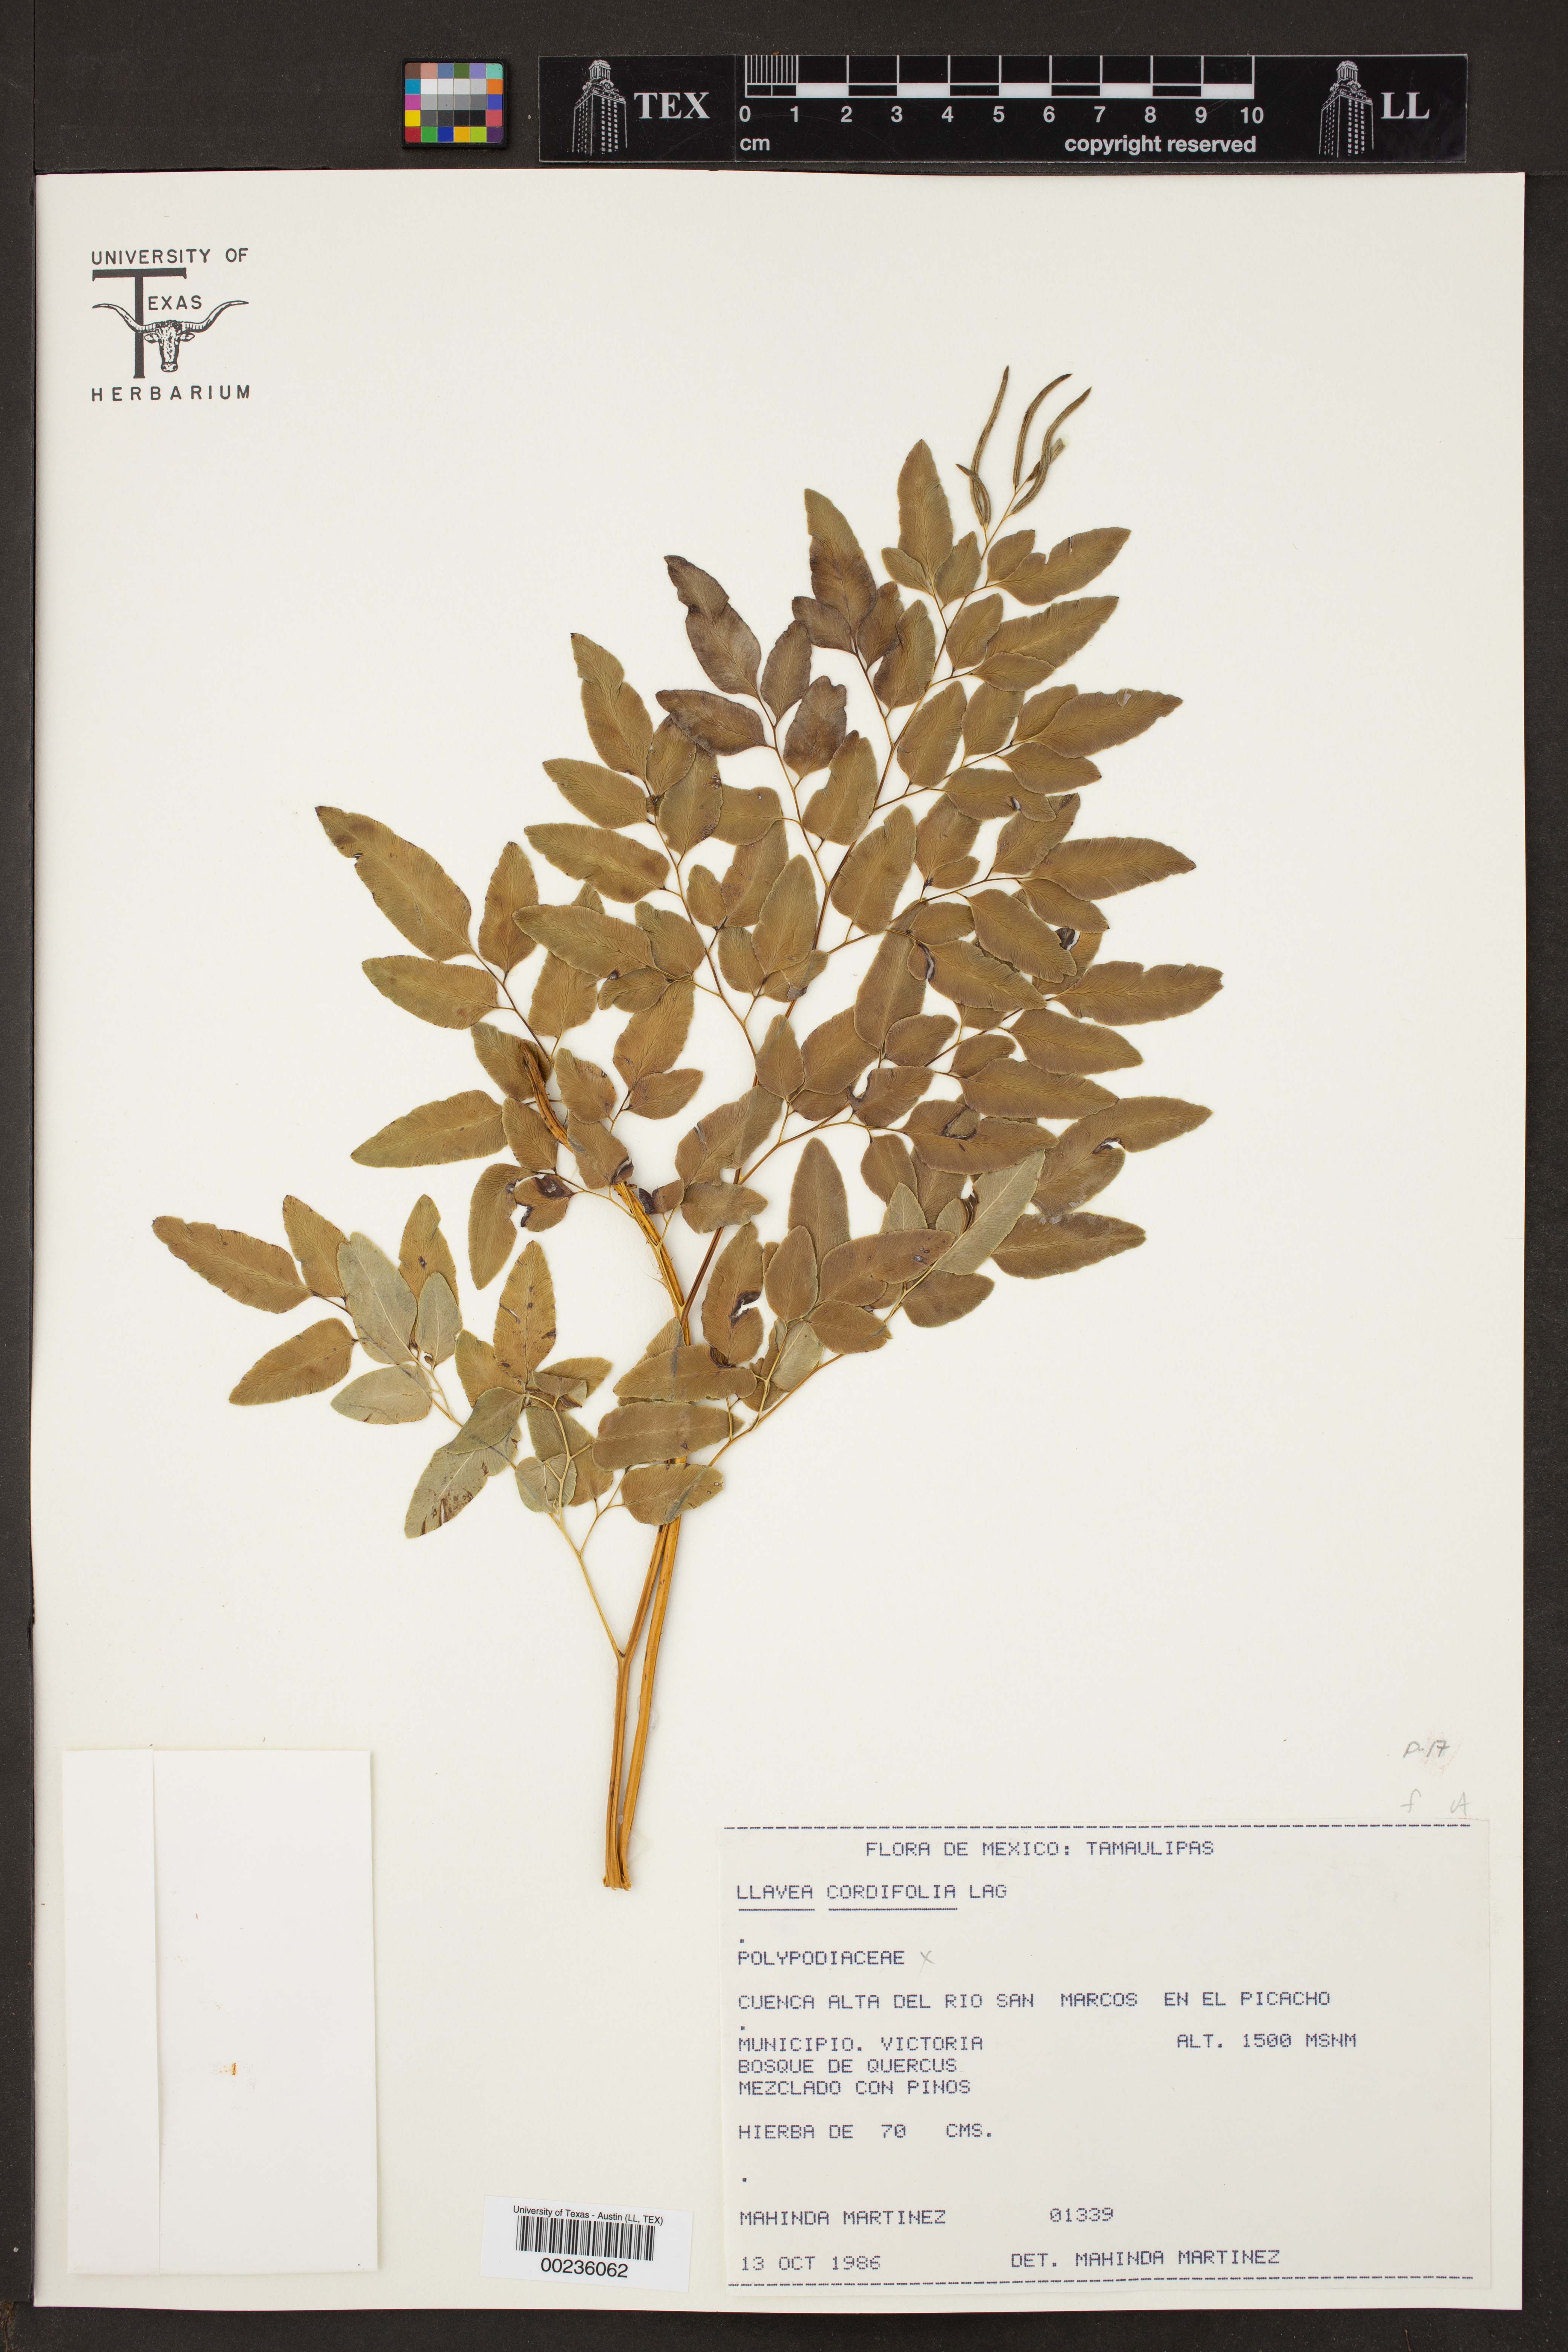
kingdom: Plantae
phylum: Tracheophyta
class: Polypodiopsida
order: Polypodiales
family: Pteridaceae
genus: Llavea
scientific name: Llavea cordifolia
